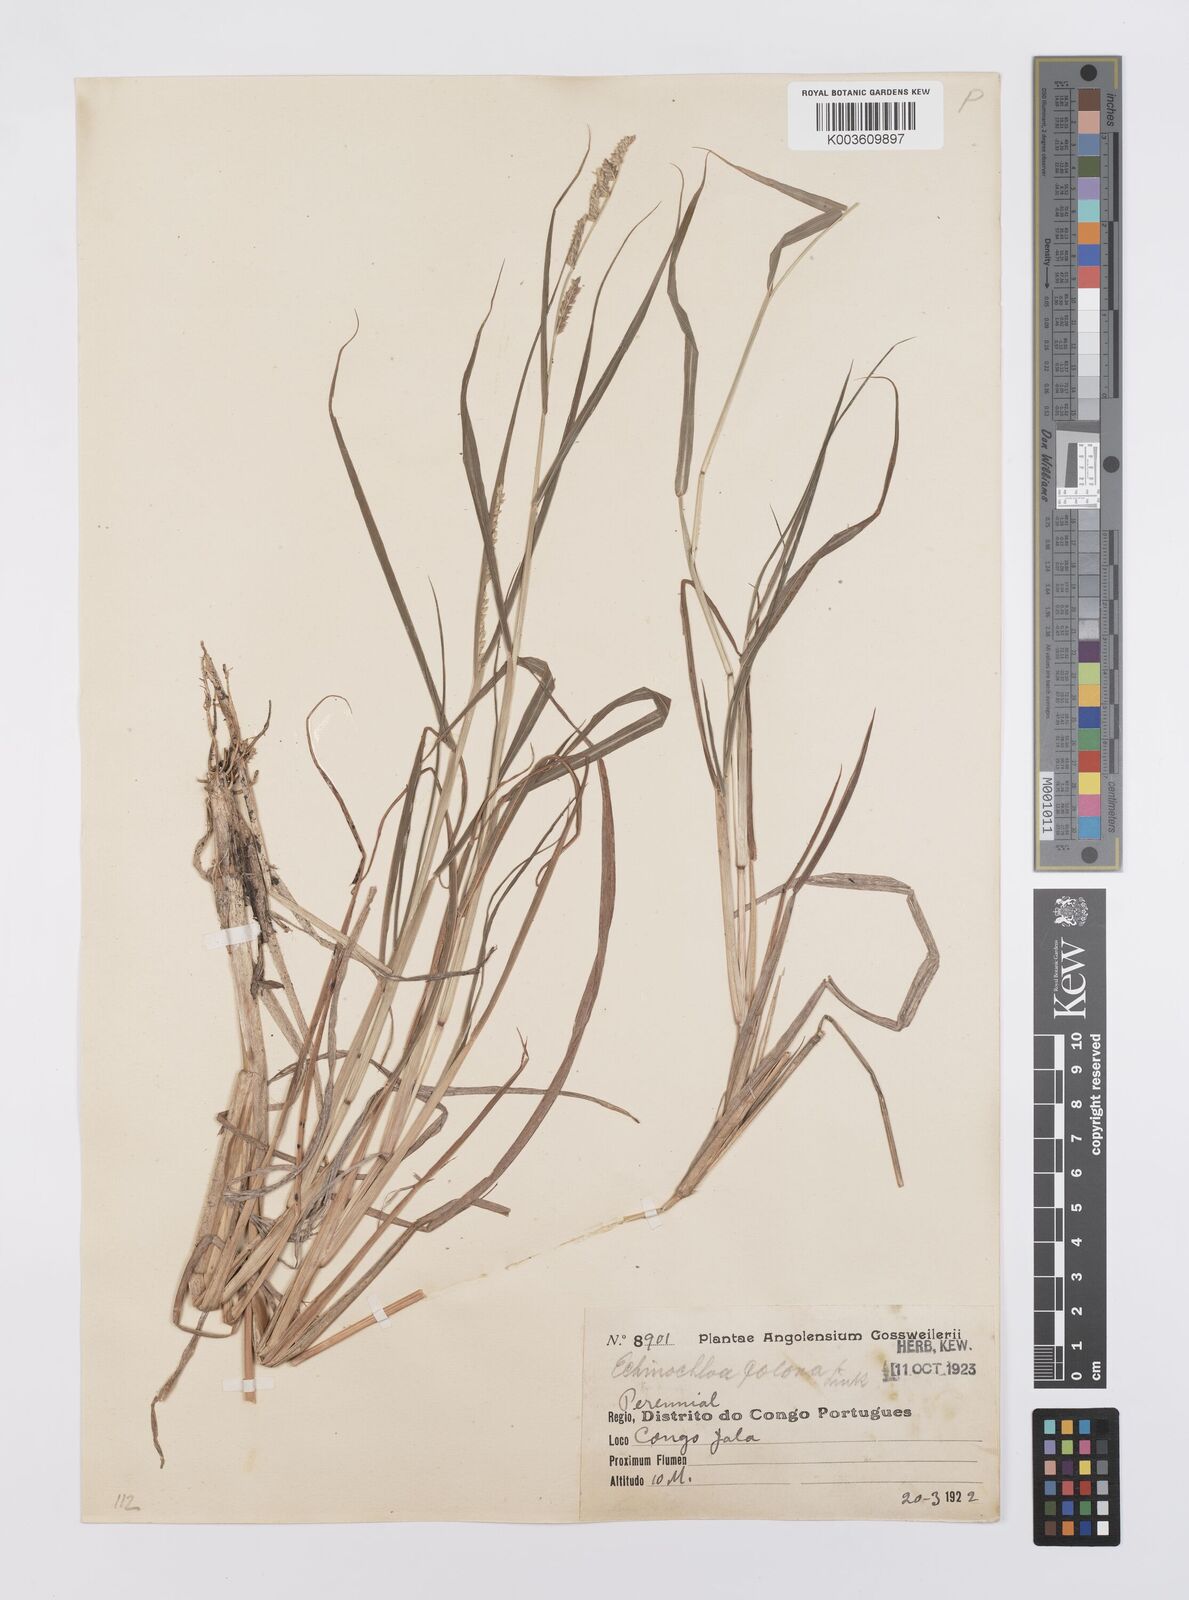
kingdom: Plantae
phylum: Tracheophyta
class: Liliopsida
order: Poales
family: Poaceae
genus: Echinochloa
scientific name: Echinochloa colonum
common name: Jungle rice
